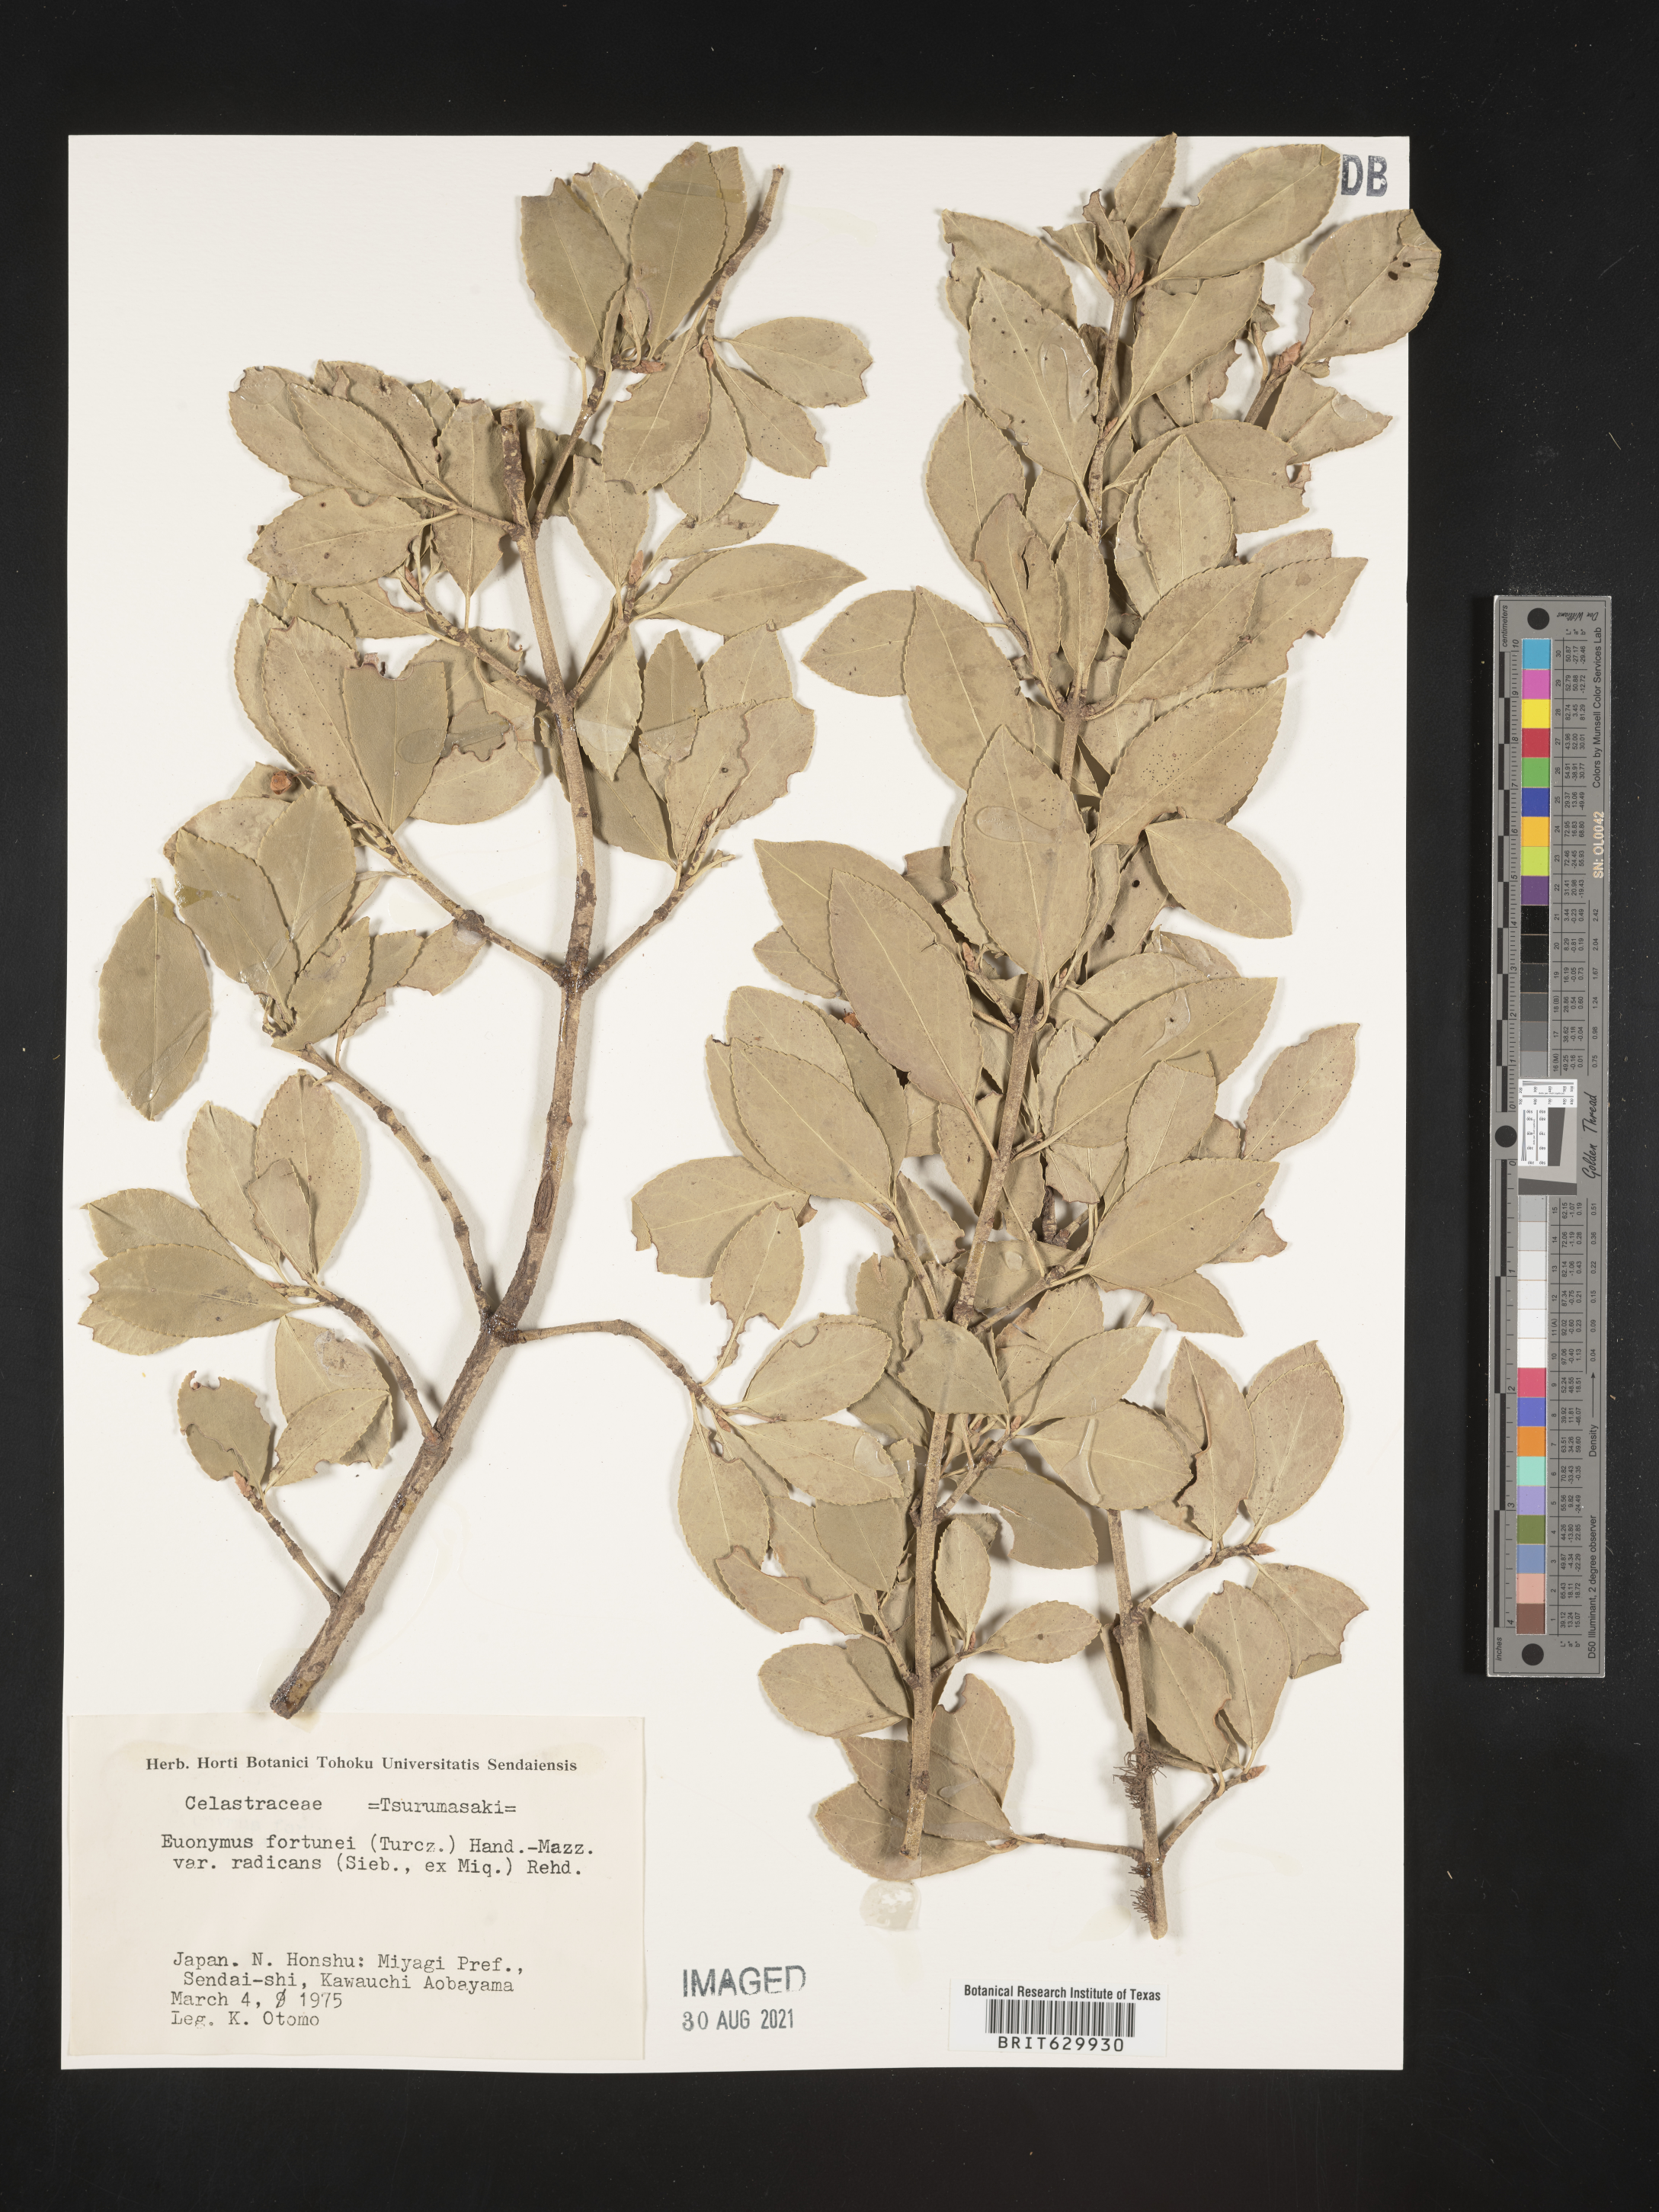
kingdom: Plantae
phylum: Tracheophyta
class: Magnoliopsida
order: Celastrales
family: Celastraceae
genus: Euonymus
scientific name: Euonymus fortunei
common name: Climbing euonymus
